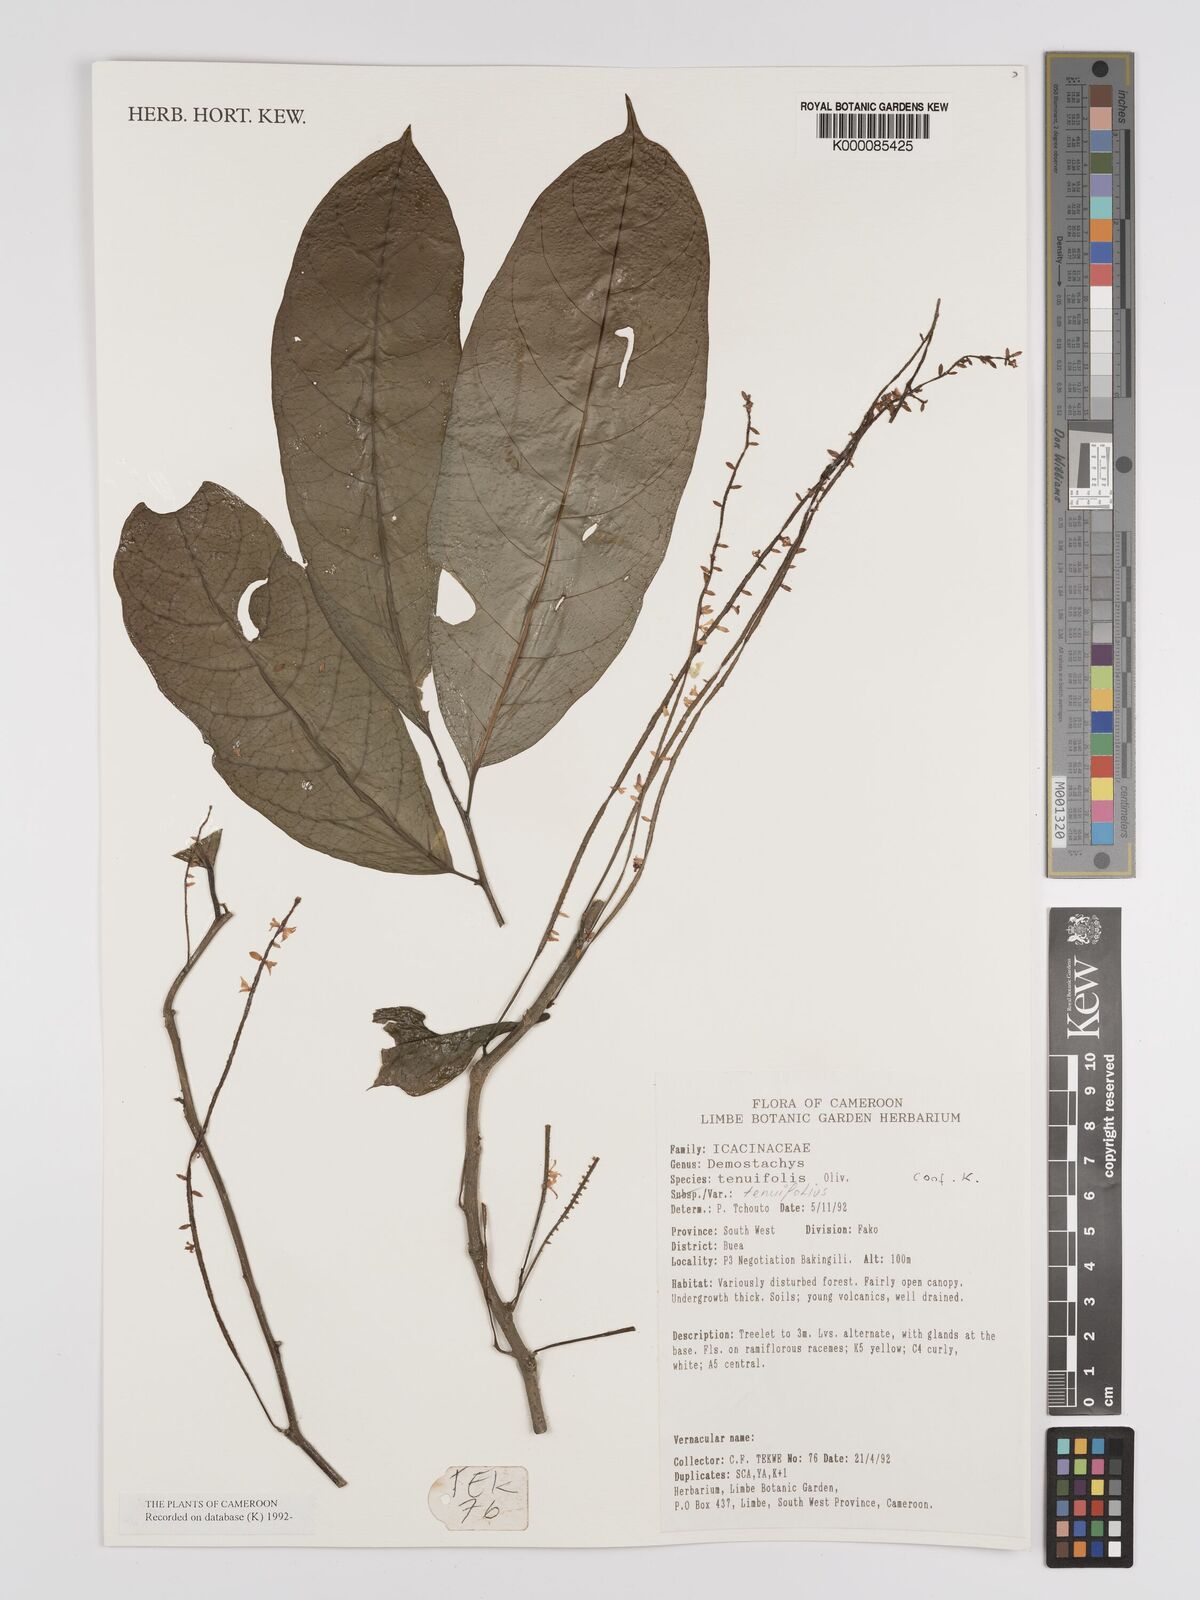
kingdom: Plantae
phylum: Tracheophyta
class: Magnoliopsida
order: Icacinales
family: Icacinaceae
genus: Vadensea
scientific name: Vadensea tenuifolia
